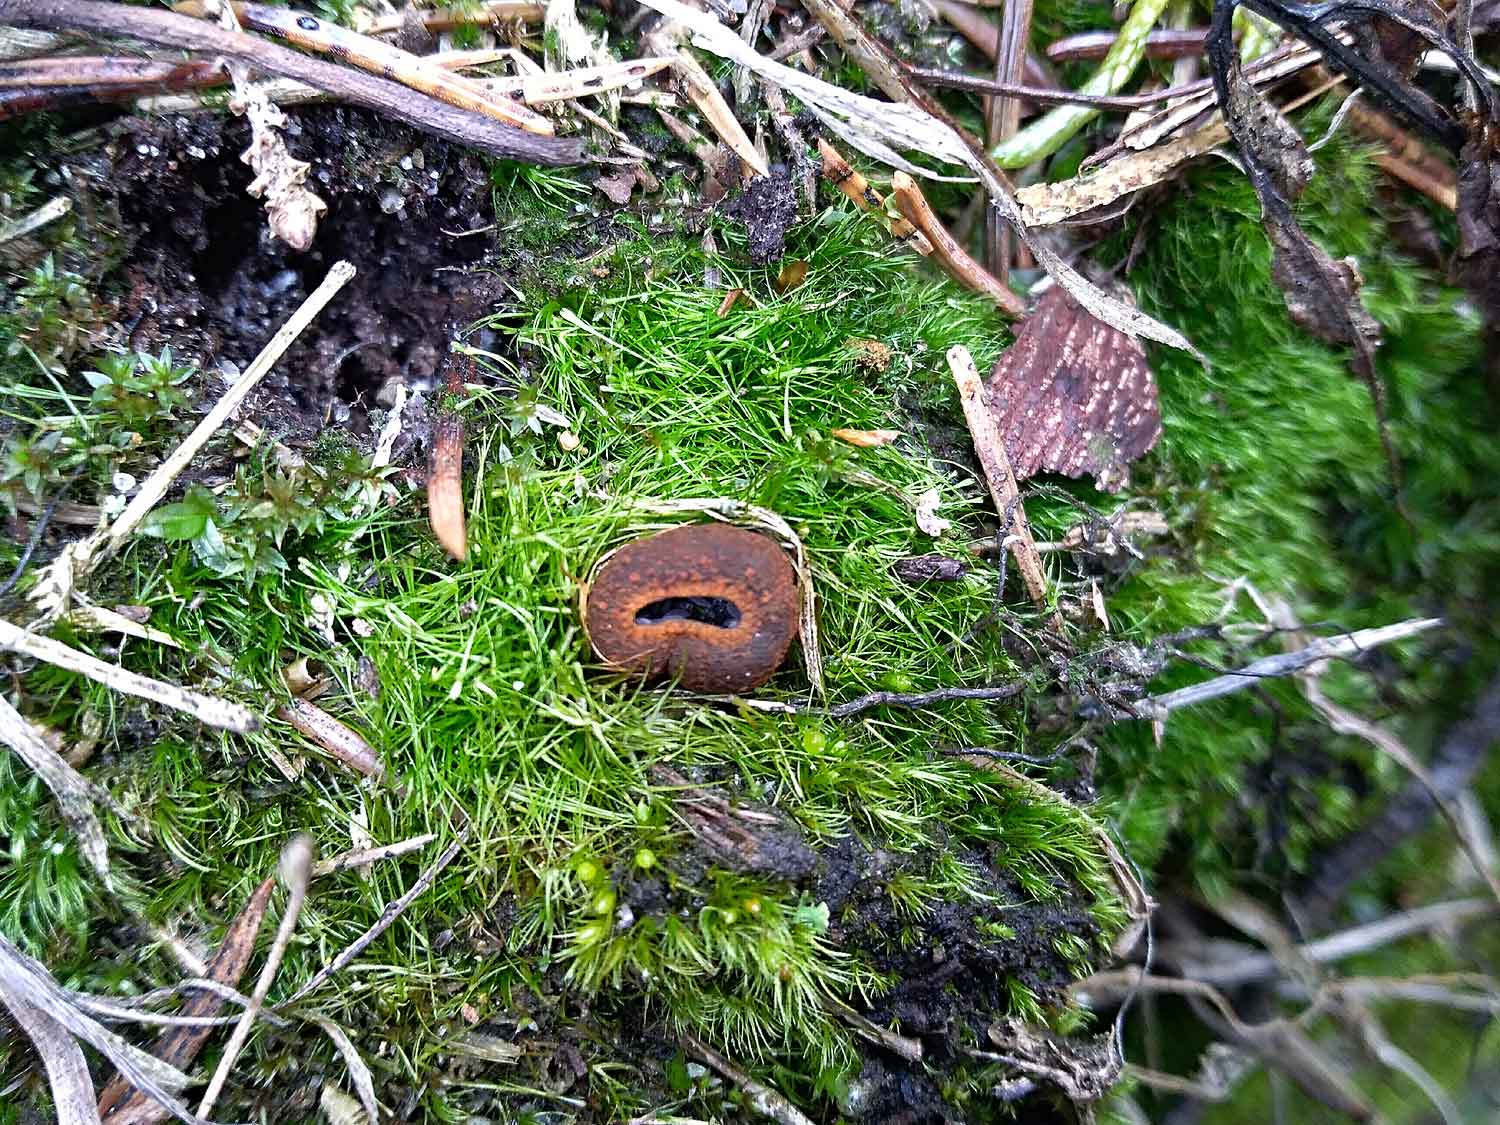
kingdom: Fungi
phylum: Ascomycota
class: Pezizomycetes
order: Pezizales
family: Sarcosomataceae
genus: Plectania
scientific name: Plectania melastoma
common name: rustbæger
